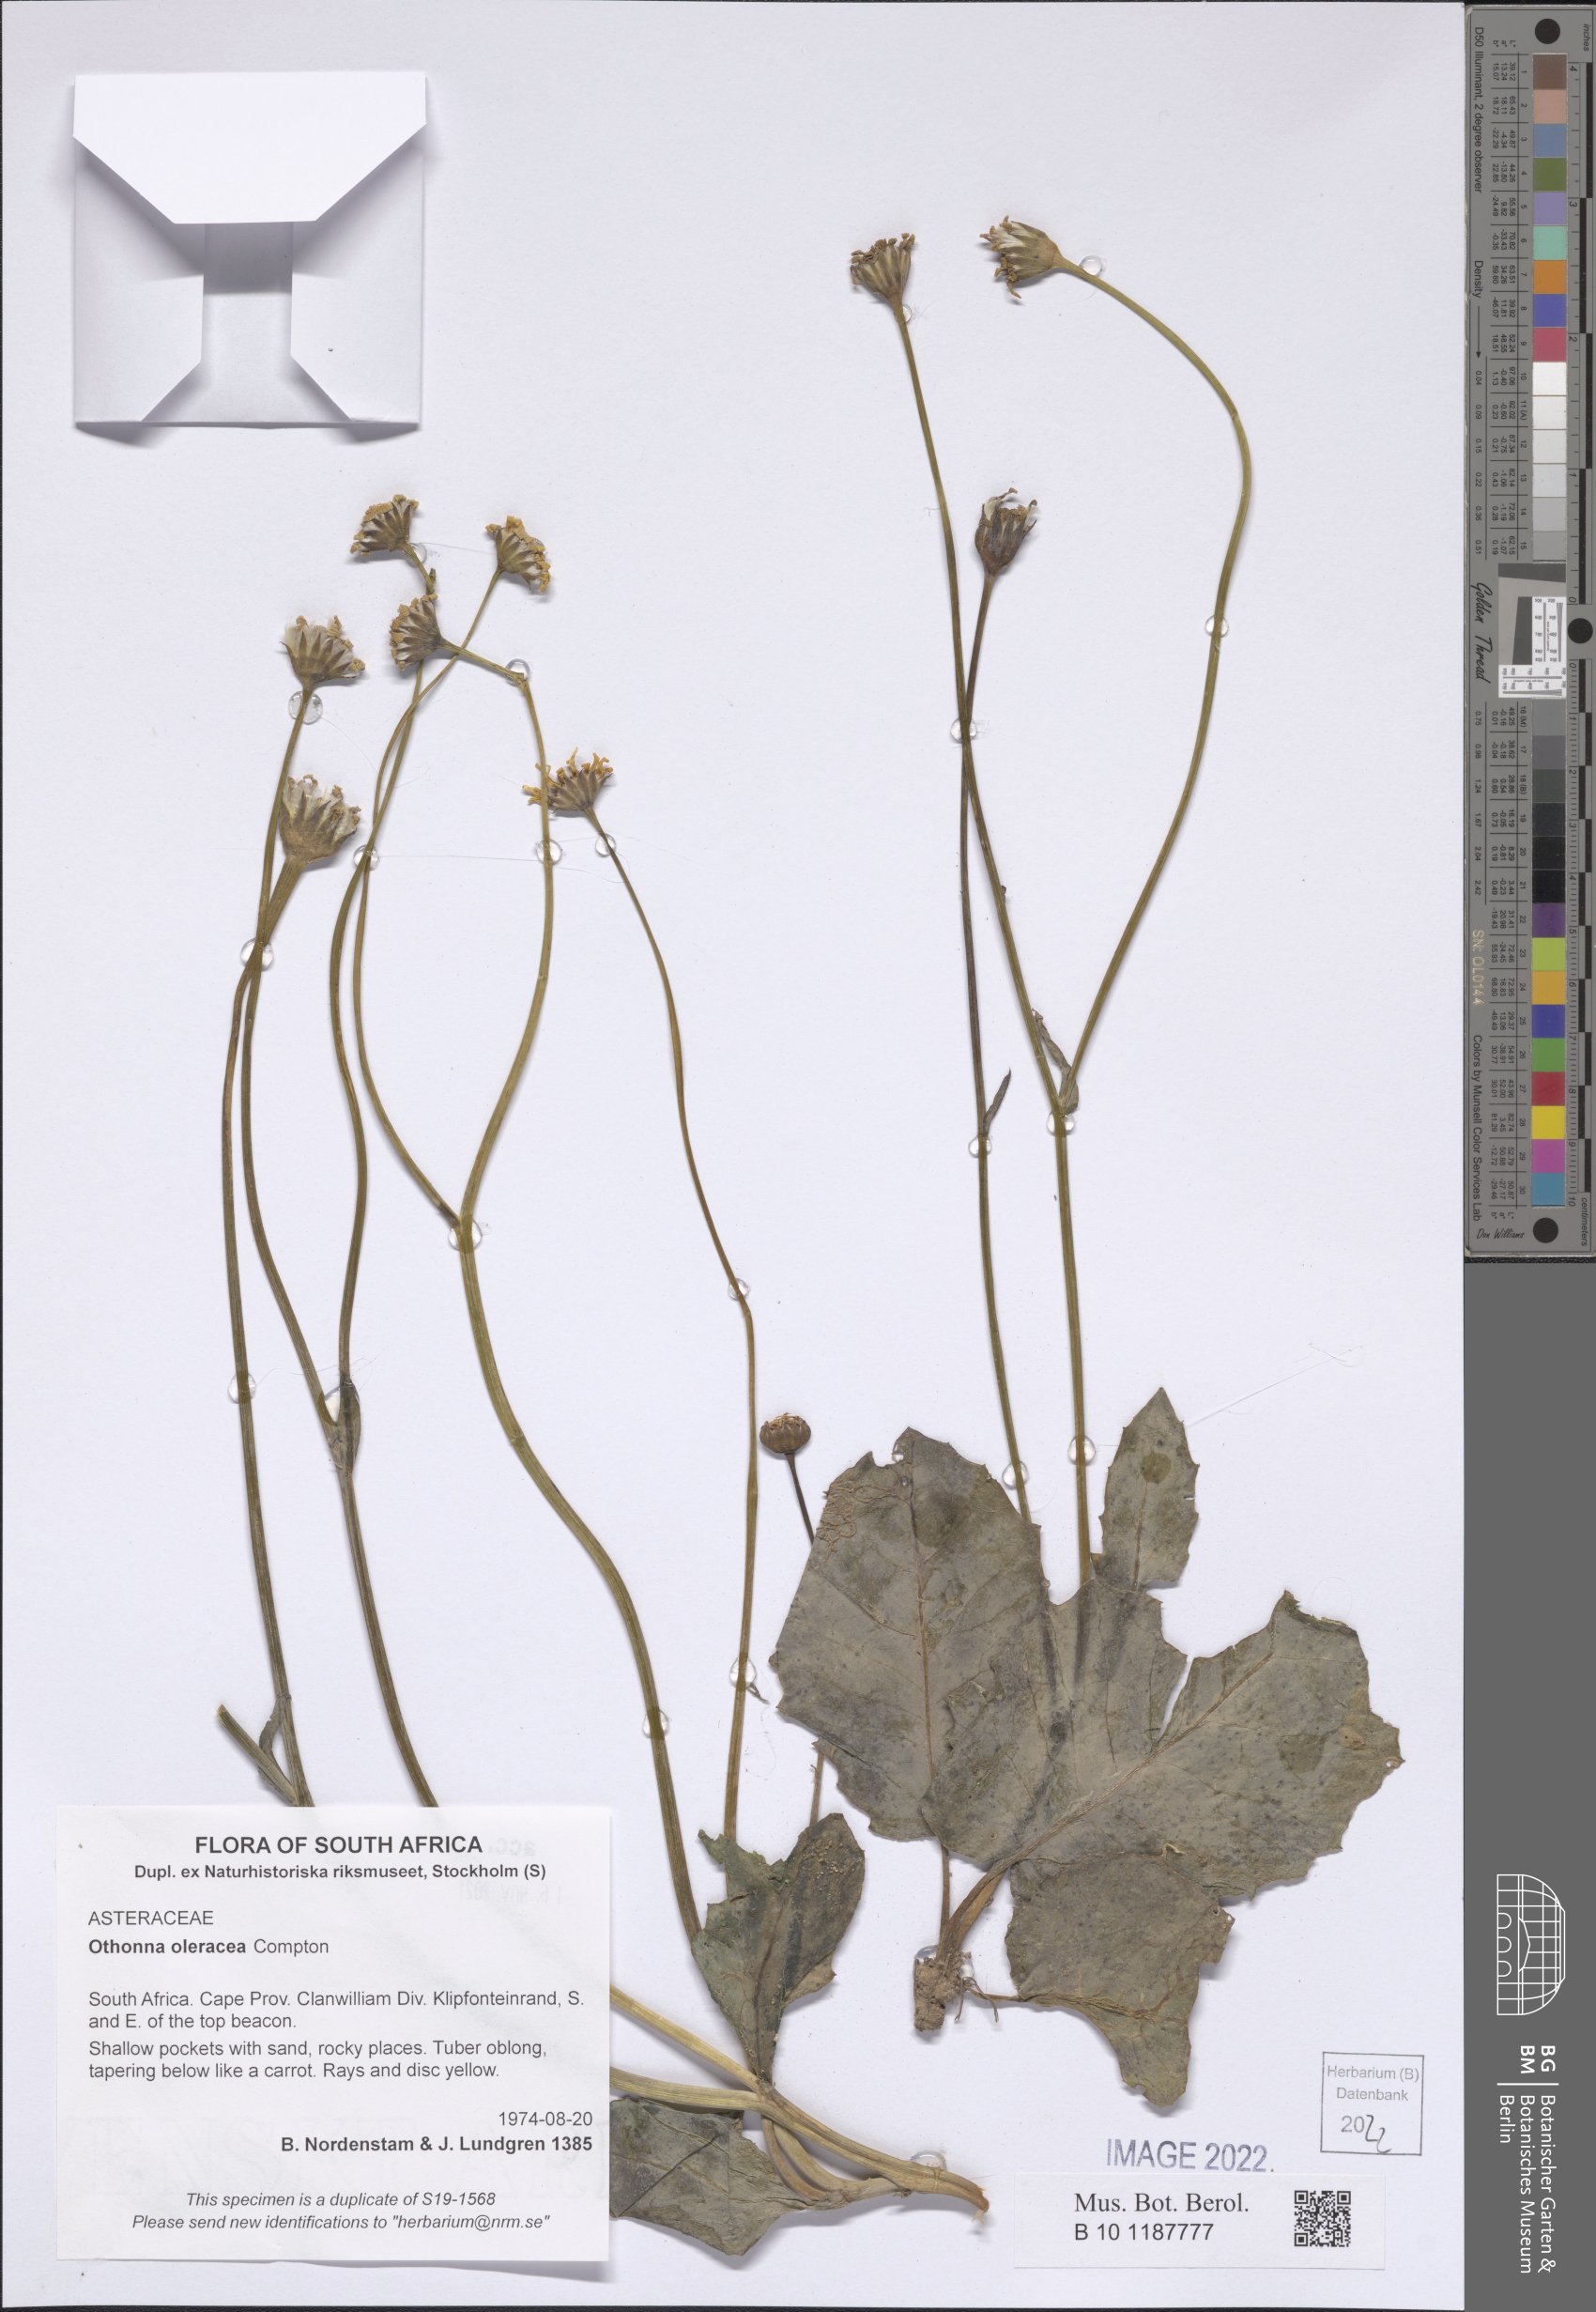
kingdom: Plantae
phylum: Tracheophyta
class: Magnoliopsida
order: Asterales
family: Asteraceae
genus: Othonna
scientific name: Othonna oleracea
